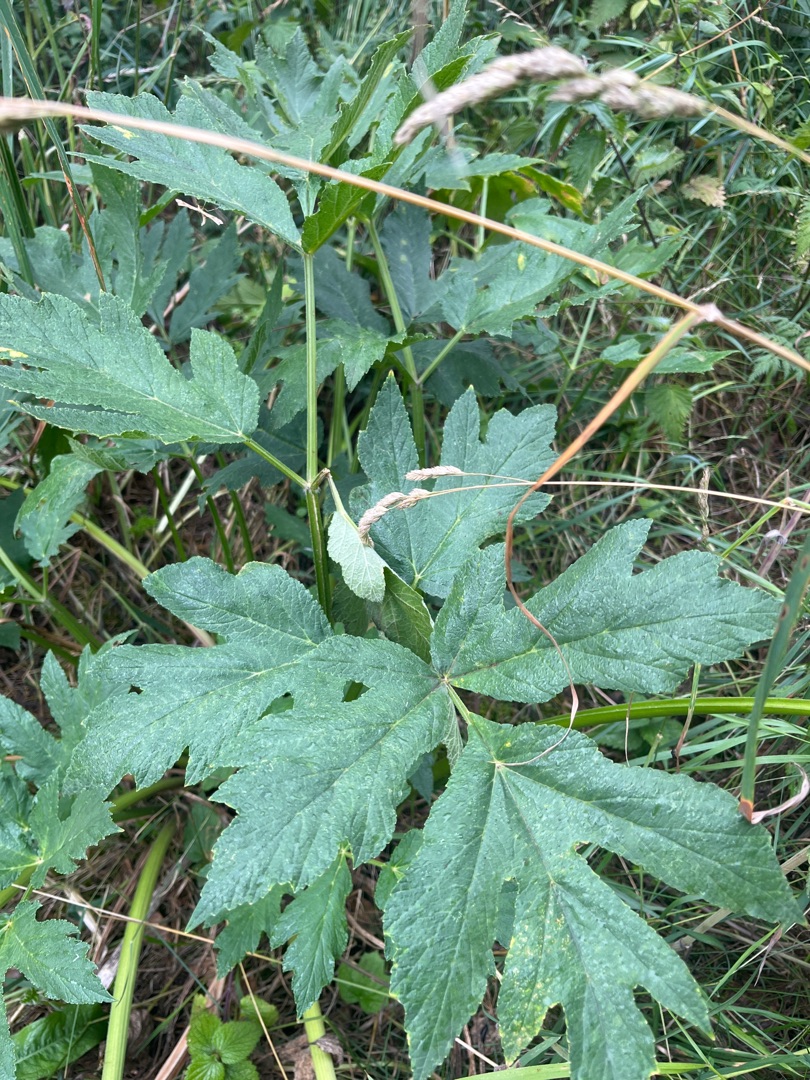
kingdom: Plantae
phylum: Tracheophyta
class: Magnoliopsida
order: Apiales
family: Apiaceae
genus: Heracleum
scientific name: Heracleum
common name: Bjørnekloslægten
